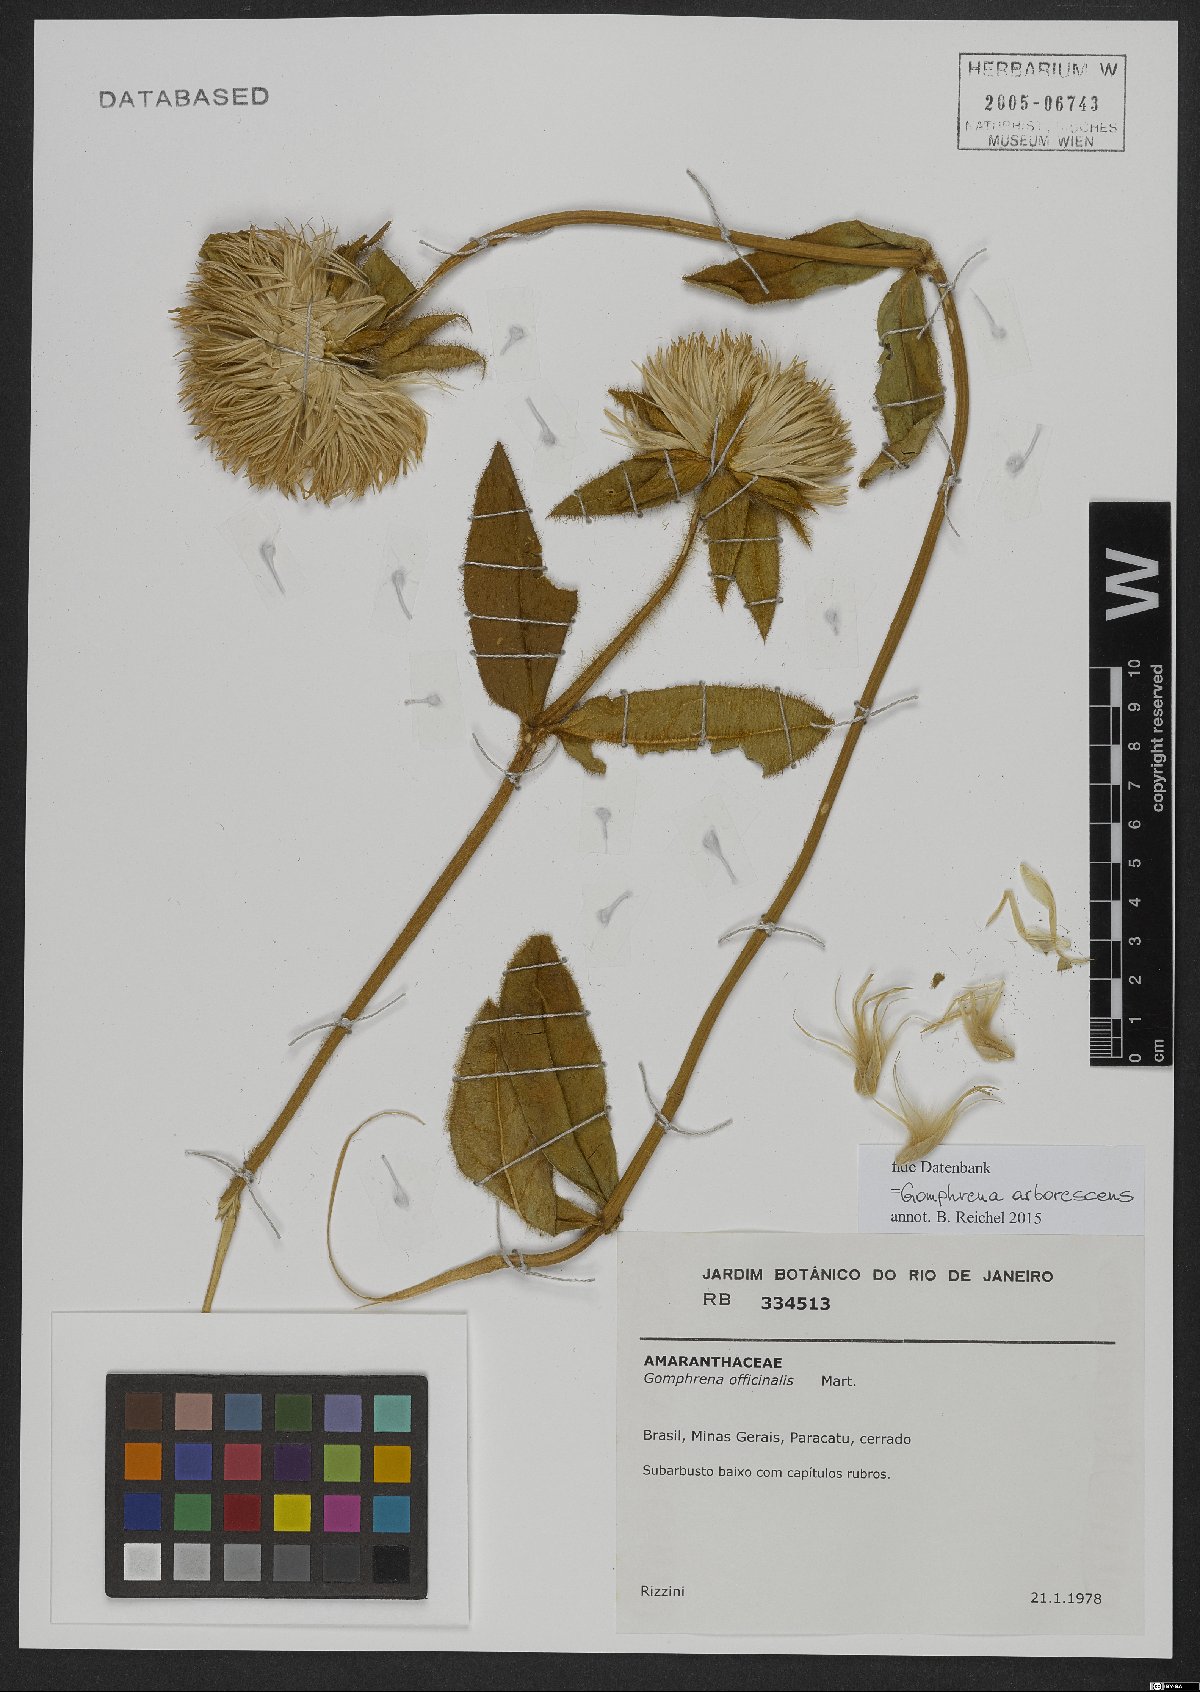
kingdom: Plantae
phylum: Tracheophyta
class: Magnoliopsida
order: Caryophyllales
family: Amaranthaceae
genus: Gomphrena
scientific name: Gomphrena arborescens
